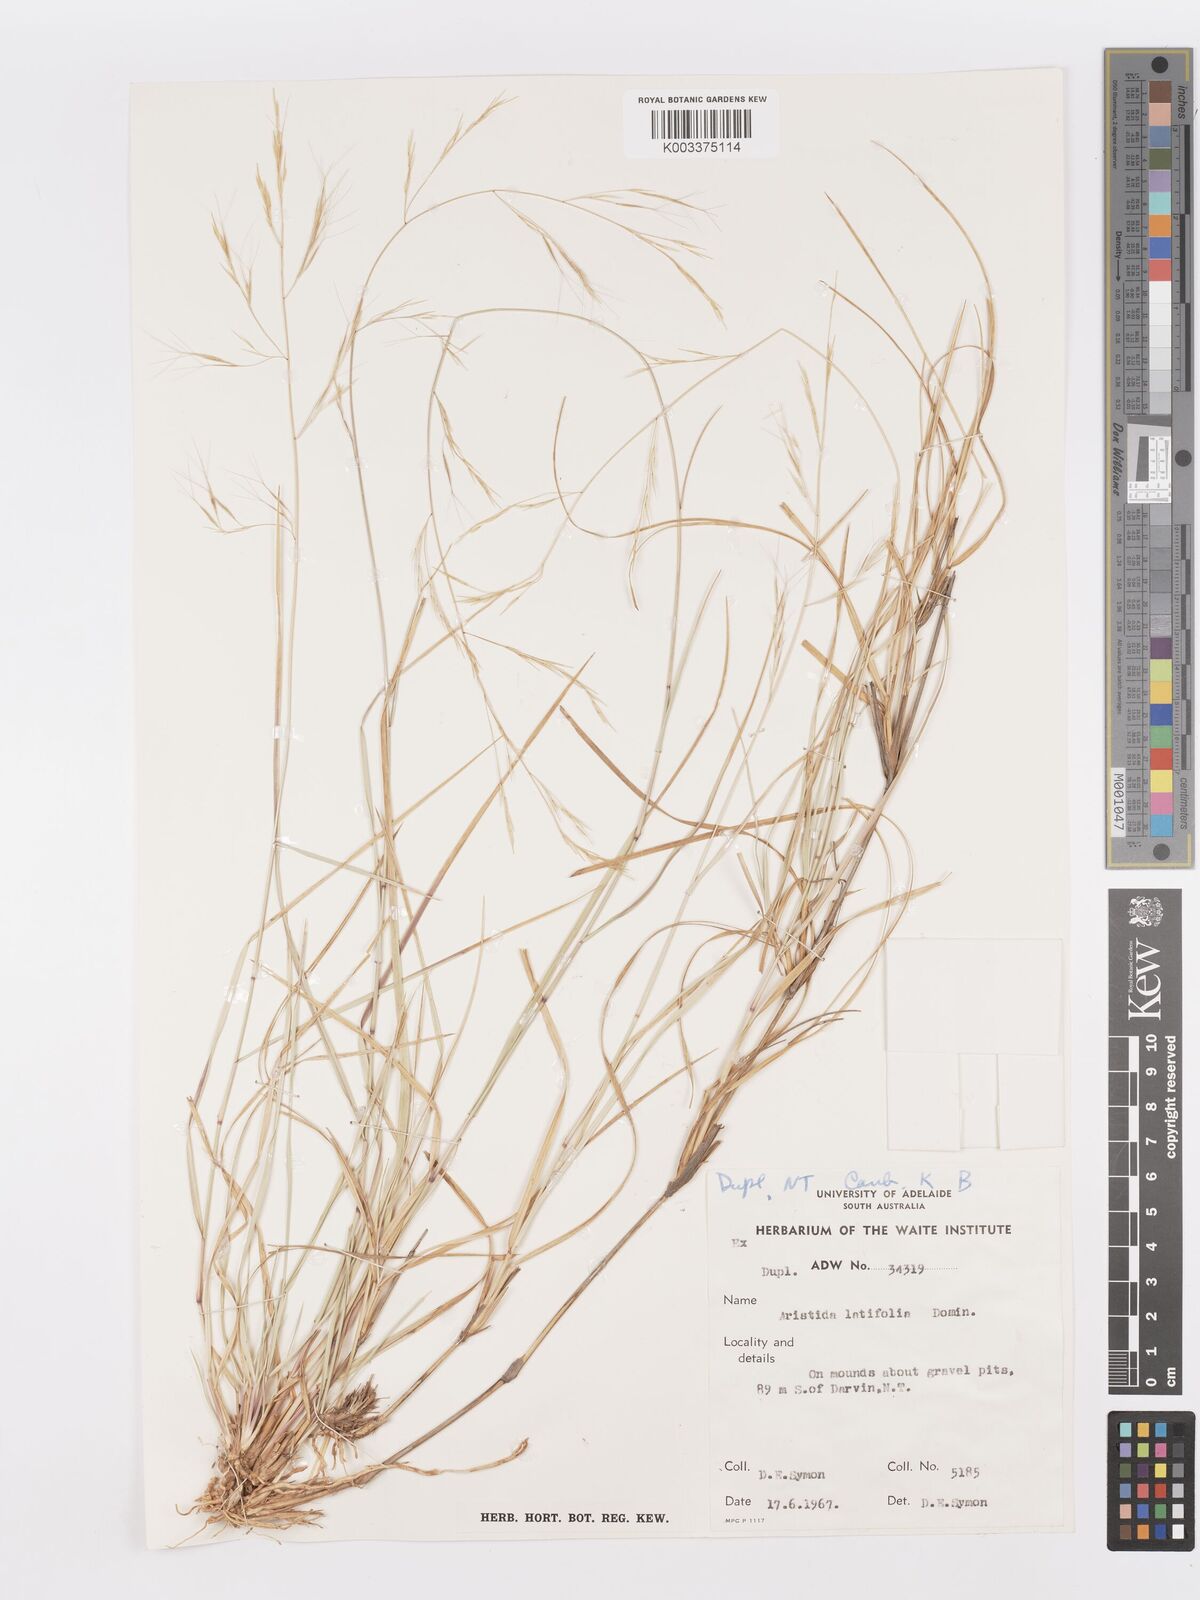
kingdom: Plantae
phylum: Tracheophyta
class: Liliopsida
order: Poales
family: Poaceae
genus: Aristida
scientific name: Aristida latifolia
